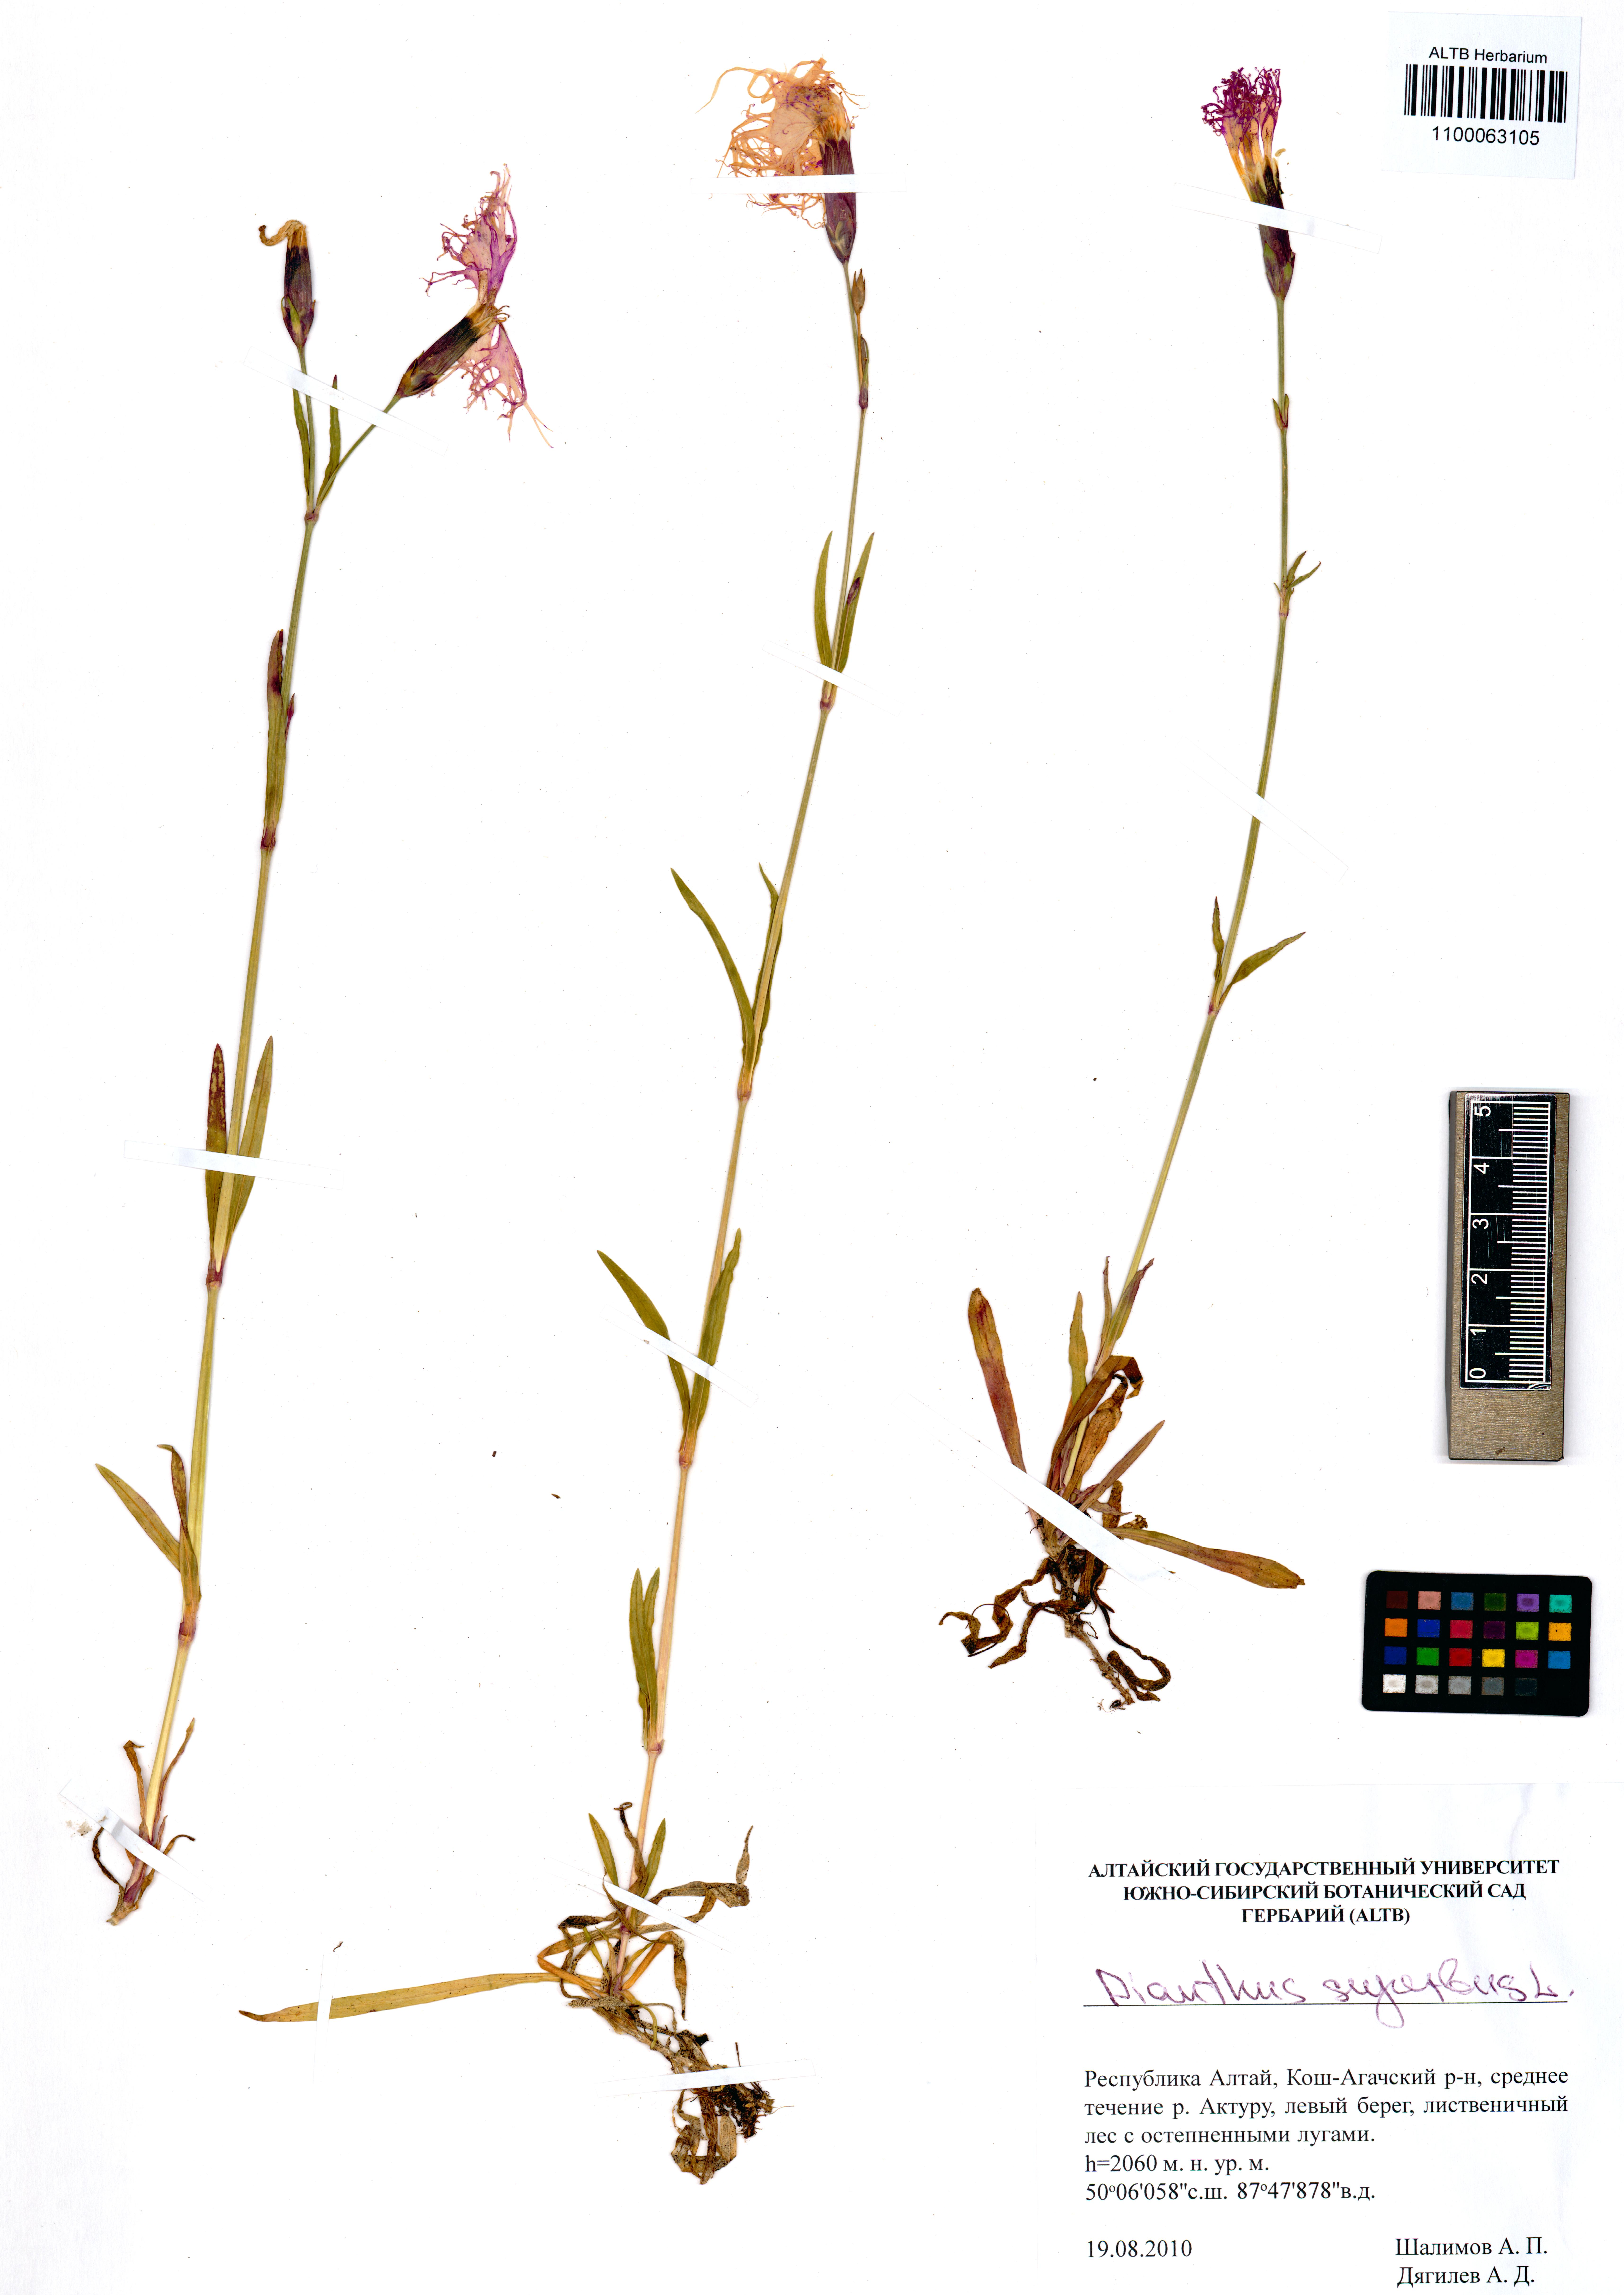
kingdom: Plantae
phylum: Tracheophyta
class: Magnoliopsida
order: Caryophyllales
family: Caryophyllaceae
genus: Dianthus
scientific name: Dianthus superbus
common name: Fringed pink
